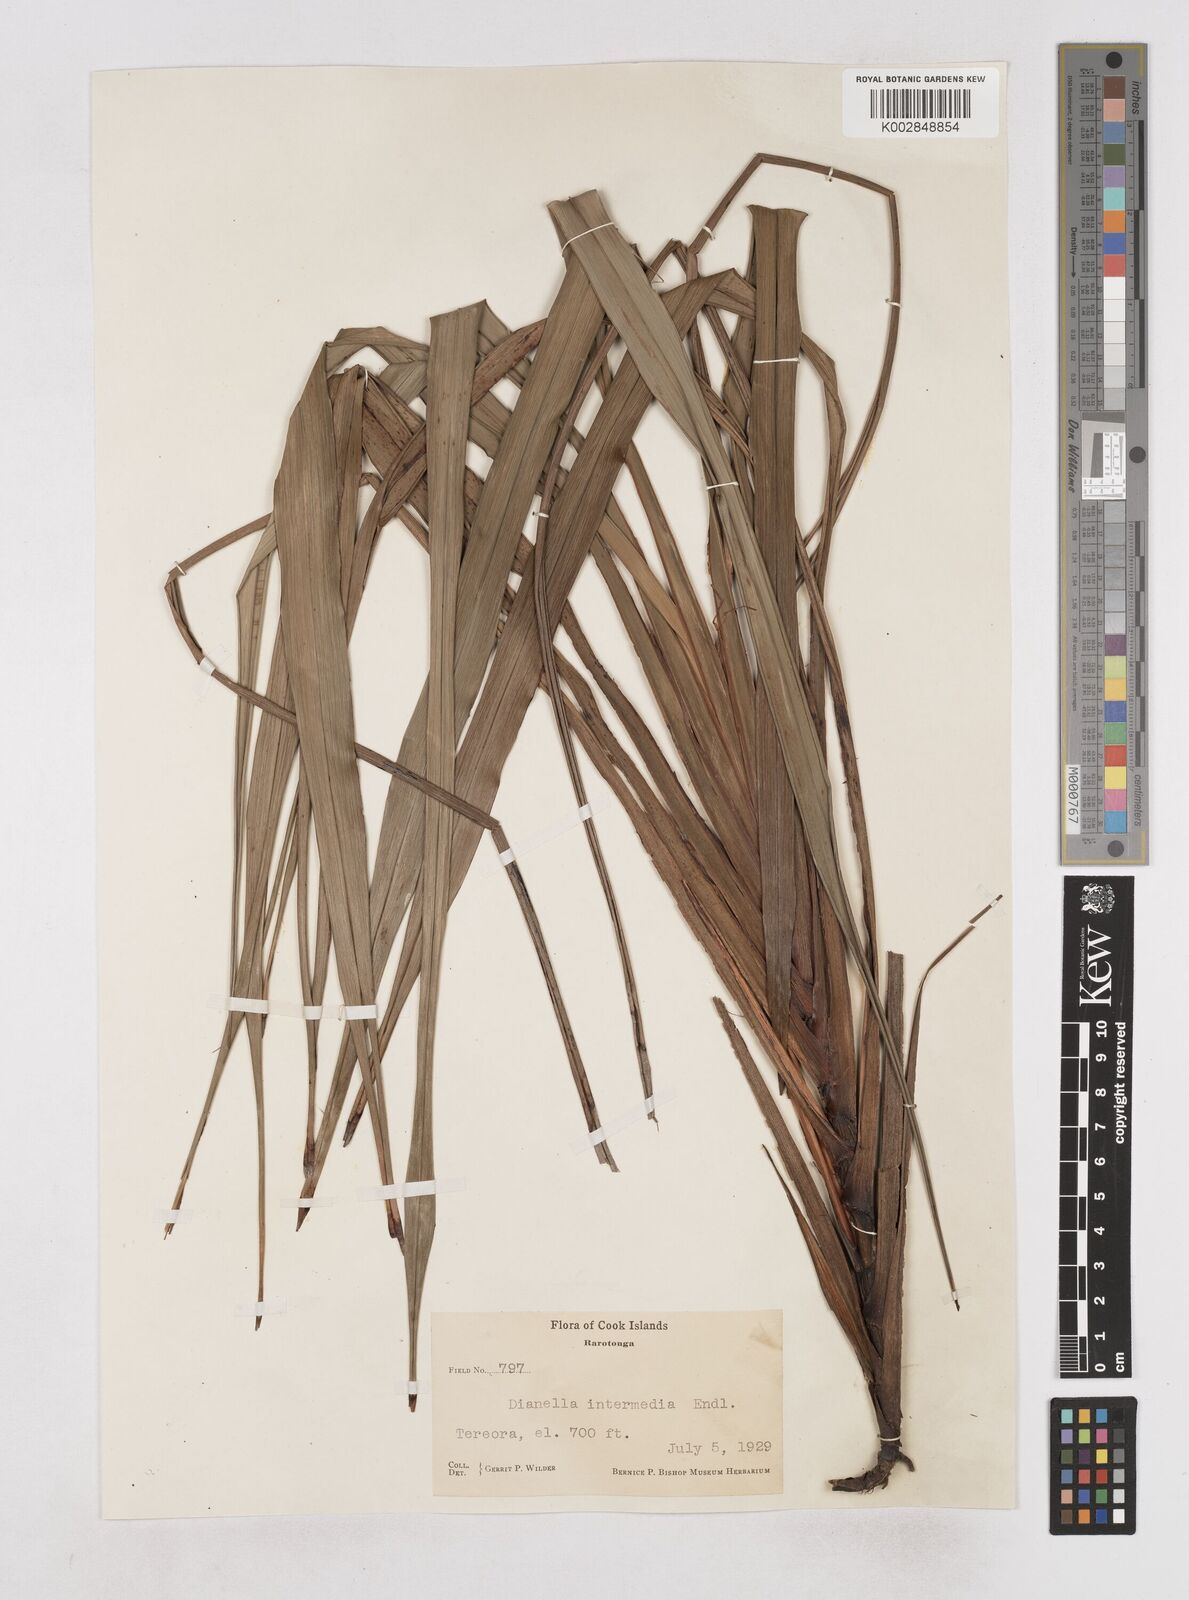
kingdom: Plantae
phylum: Tracheophyta
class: Liliopsida
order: Asparagales
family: Asphodelaceae
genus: Dianella
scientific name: Dianella intermedia
